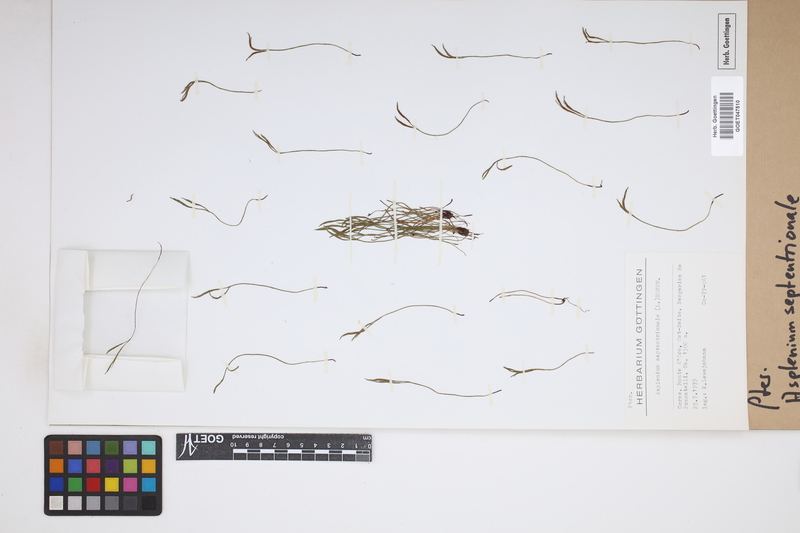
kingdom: Plantae
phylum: Tracheophyta
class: Polypodiopsida
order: Polypodiales
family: Aspleniaceae
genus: Asplenium
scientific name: Asplenium septentrionale
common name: Forked spleenwort
